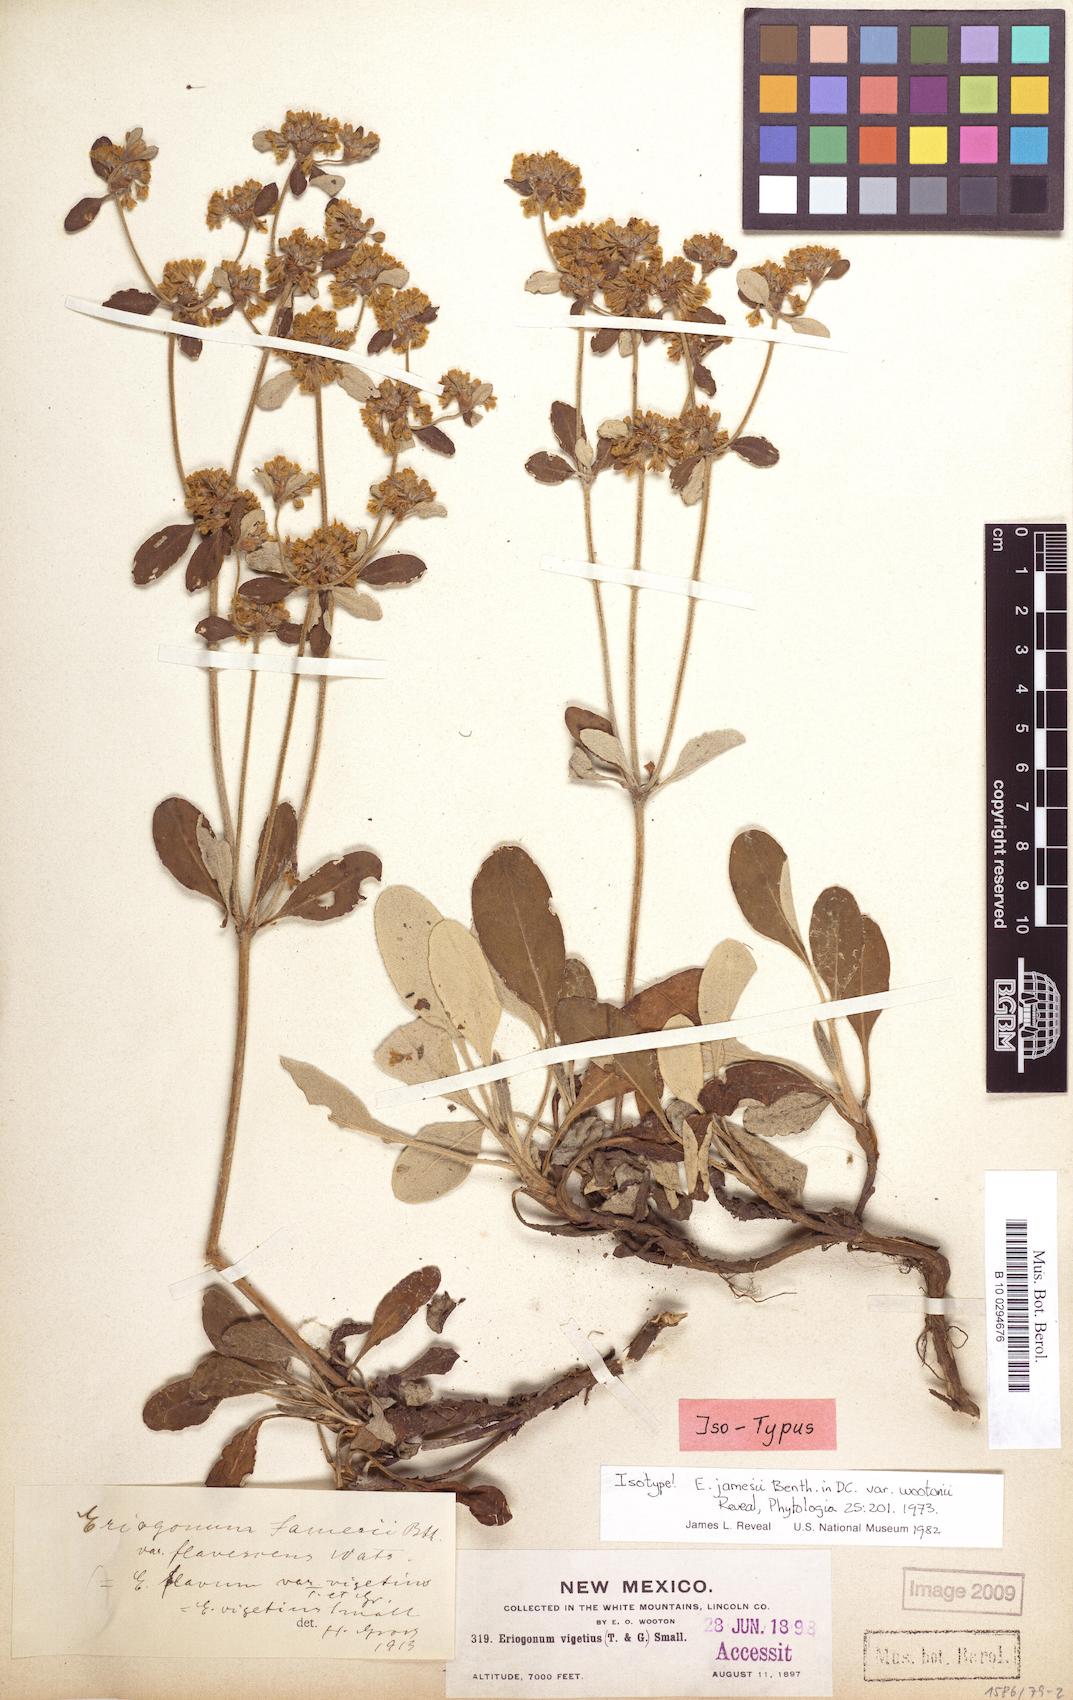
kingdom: Plantae
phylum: Tracheophyta
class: Magnoliopsida
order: Caryophyllales
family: Polygonaceae
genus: Eriogonum
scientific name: Eriogonum wootonii
